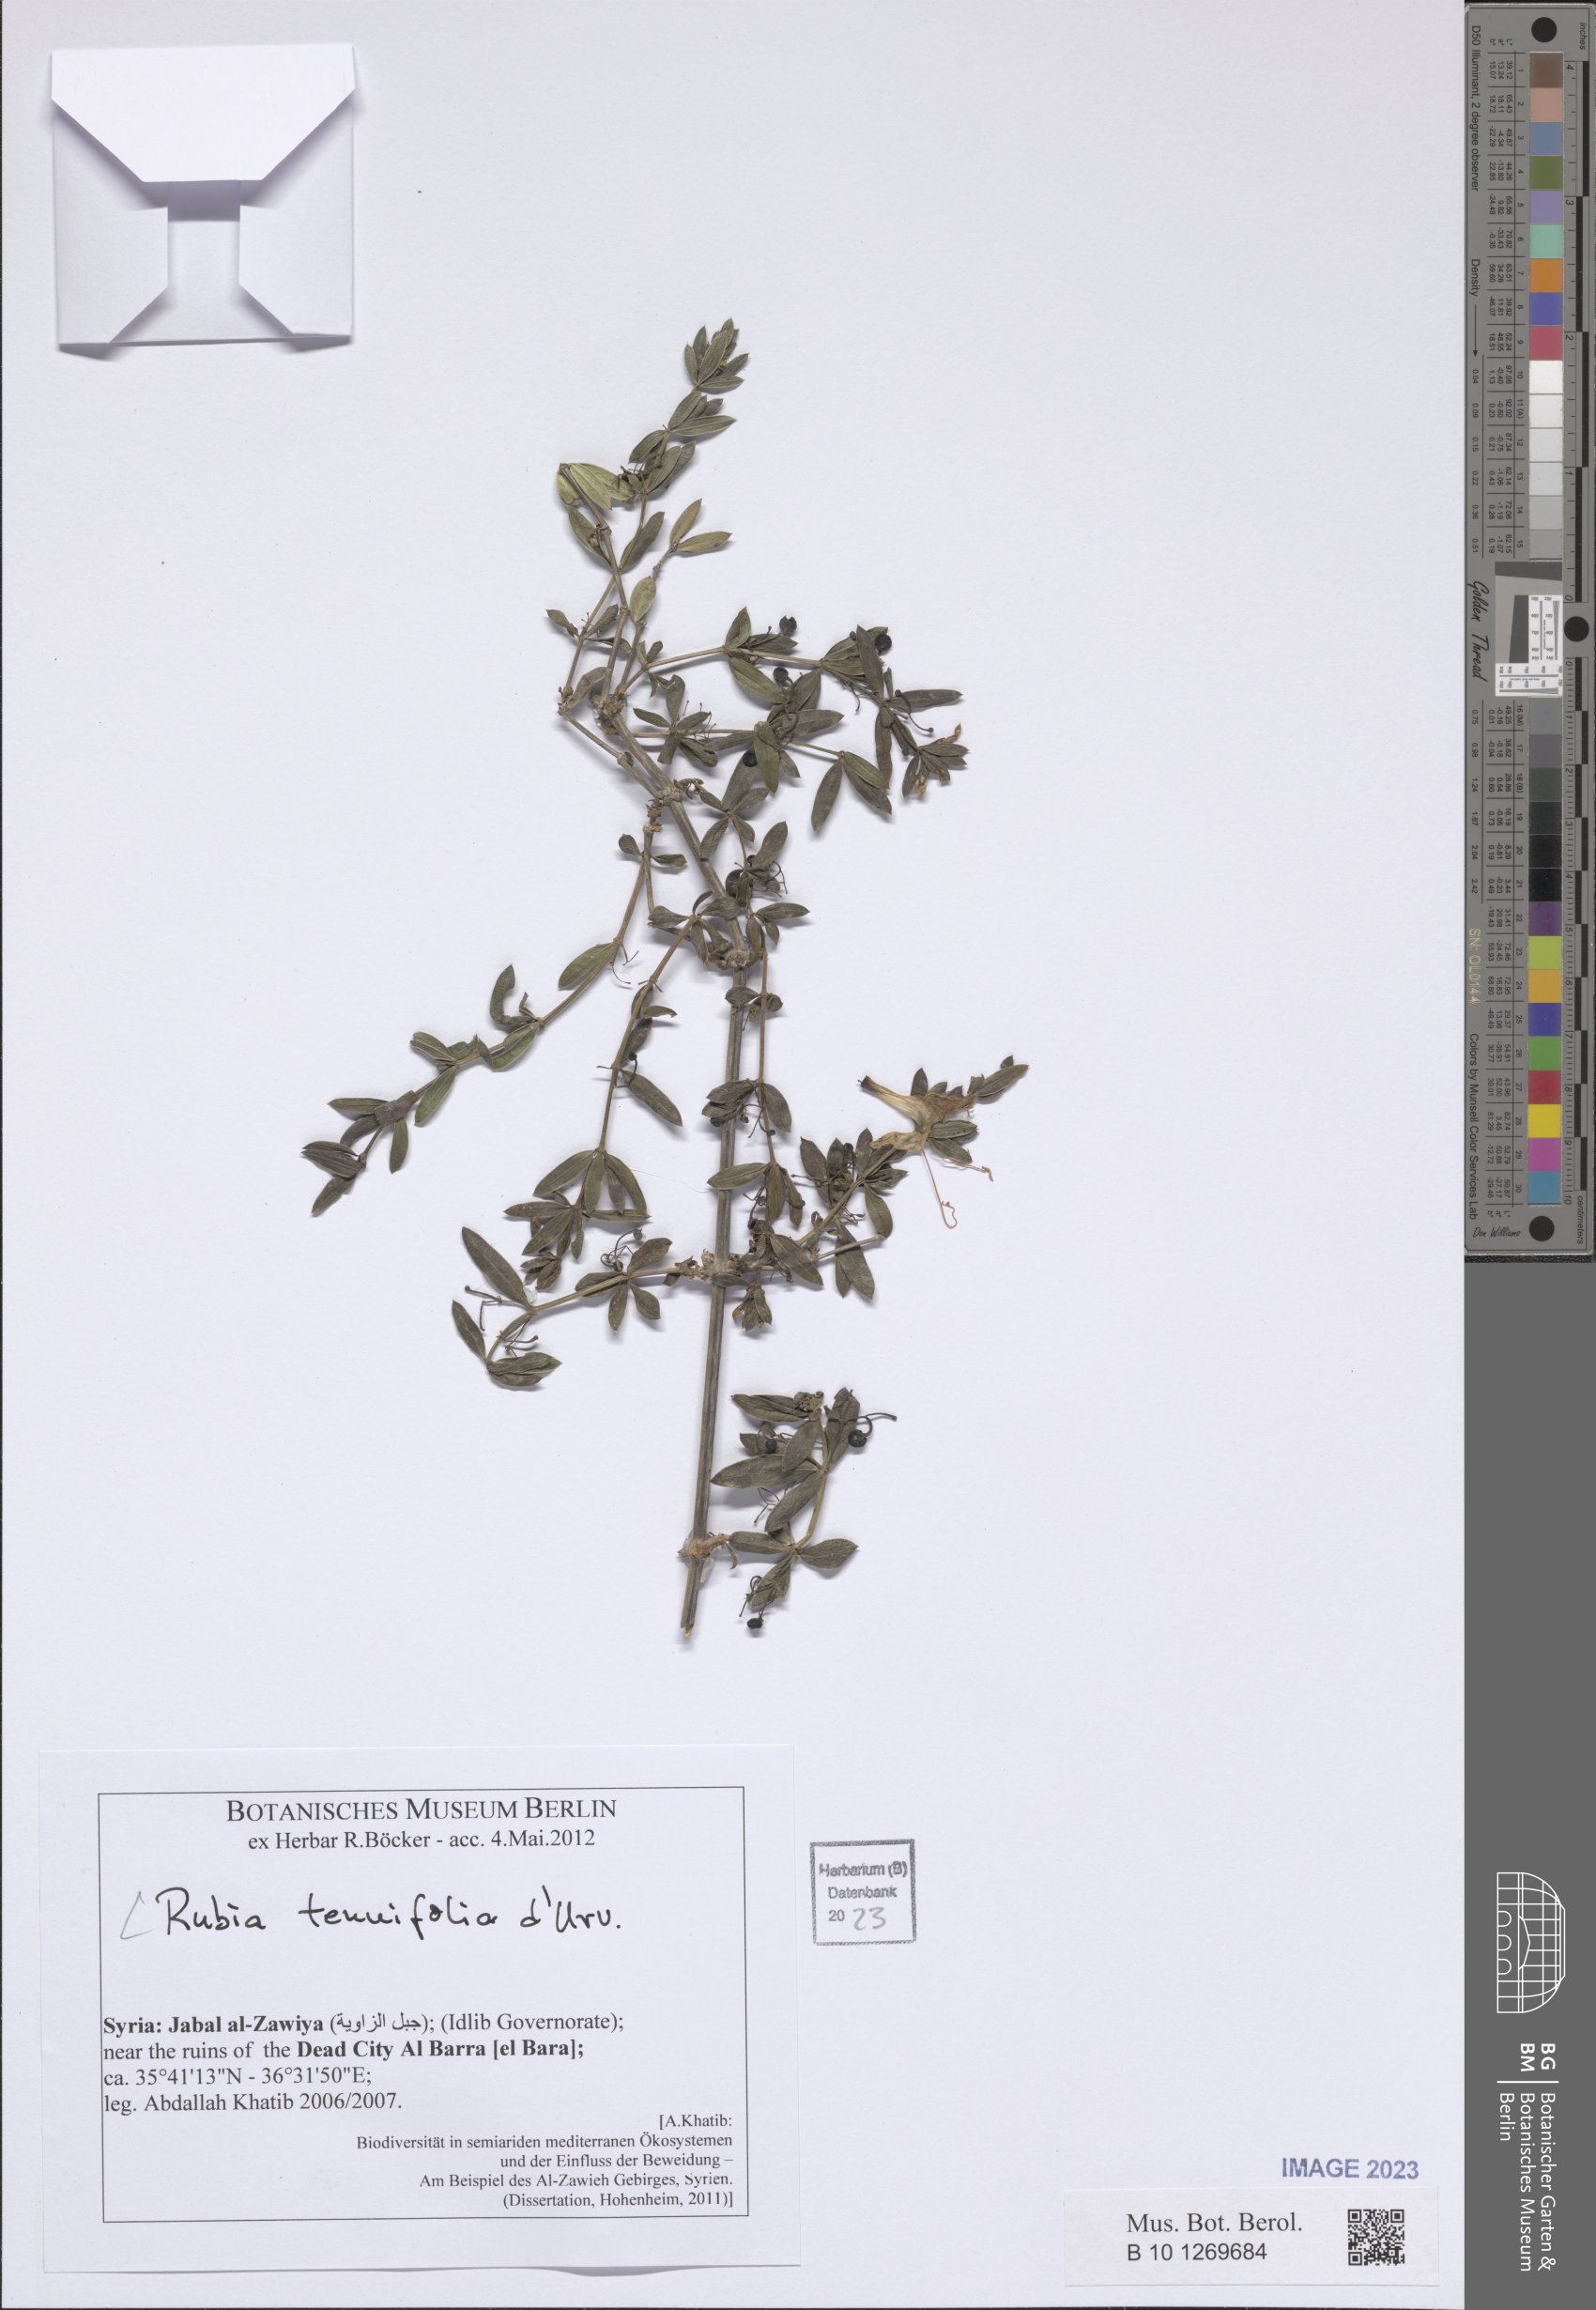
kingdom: Plantae
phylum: Tracheophyta
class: Magnoliopsida
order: Gentianales
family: Rubiaceae
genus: Rubia
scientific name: Rubia tenuifolia
